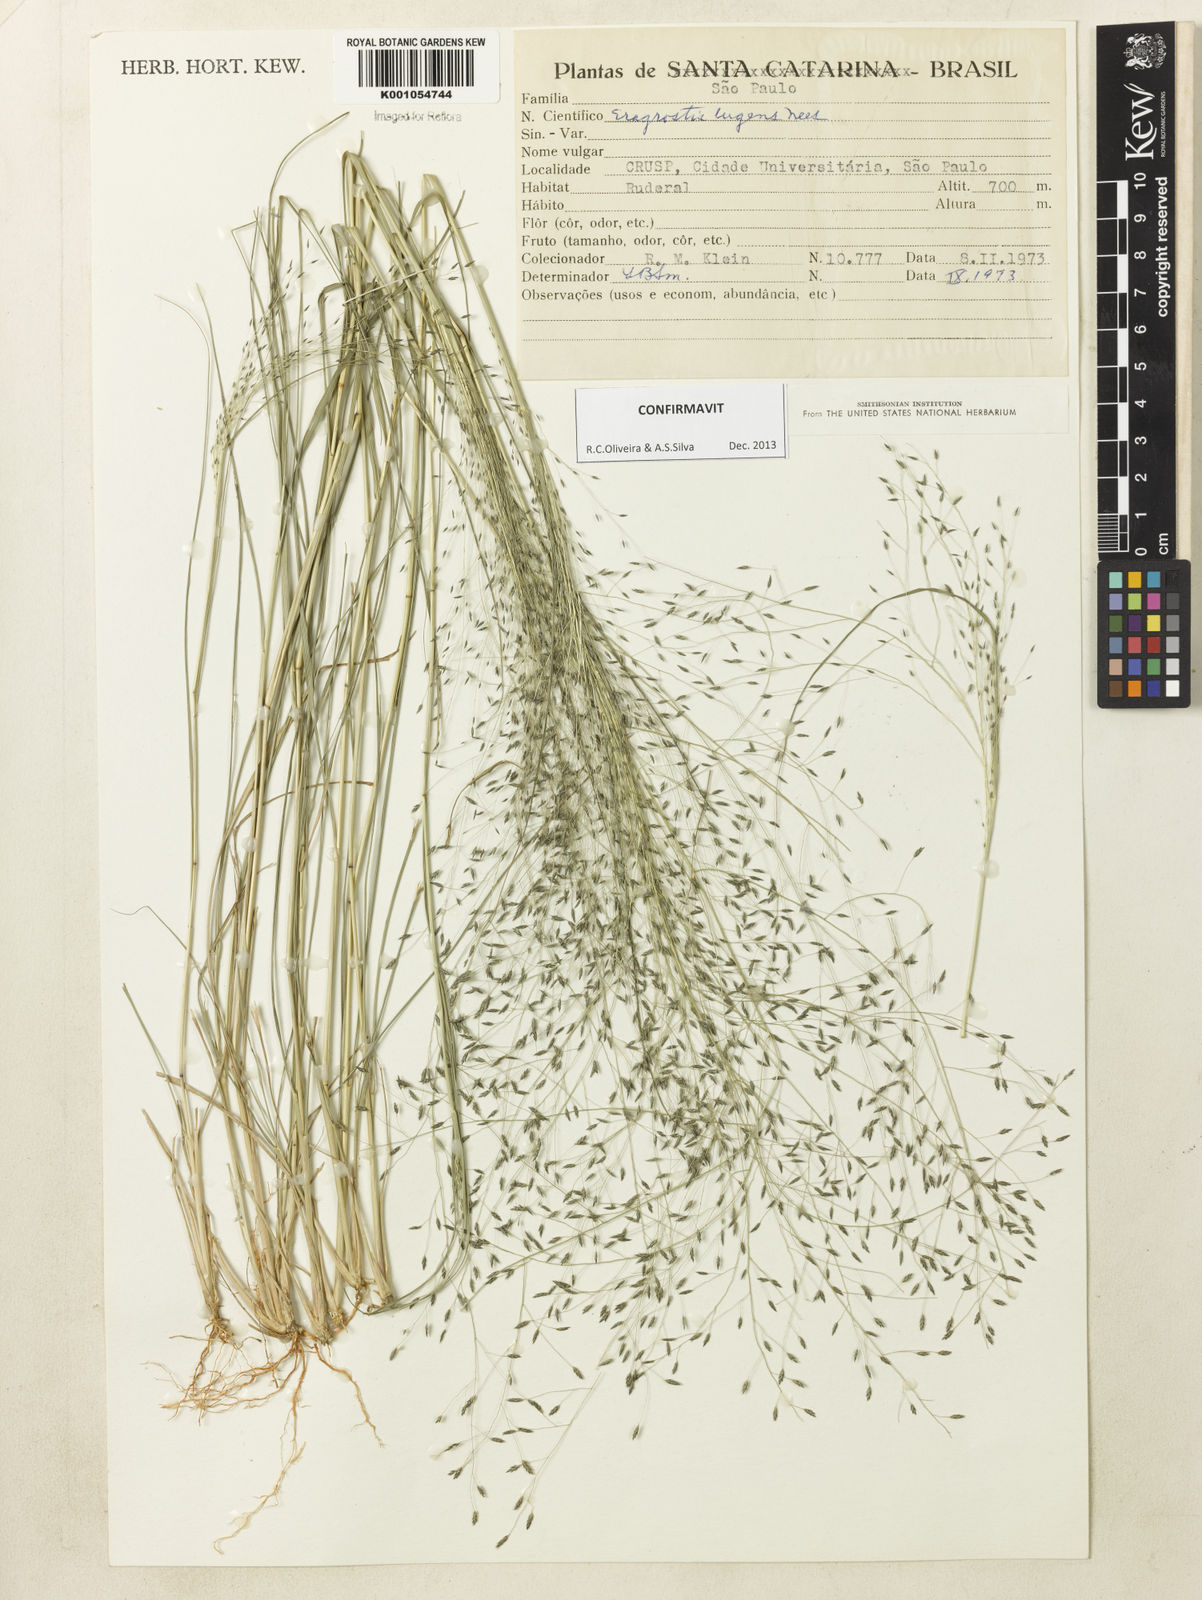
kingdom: Plantae
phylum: Tracheophyta
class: Liliopsida
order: Poales
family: Poaceae
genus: Eragrostis
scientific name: Eragrostis lugens
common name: Mourning love grass
